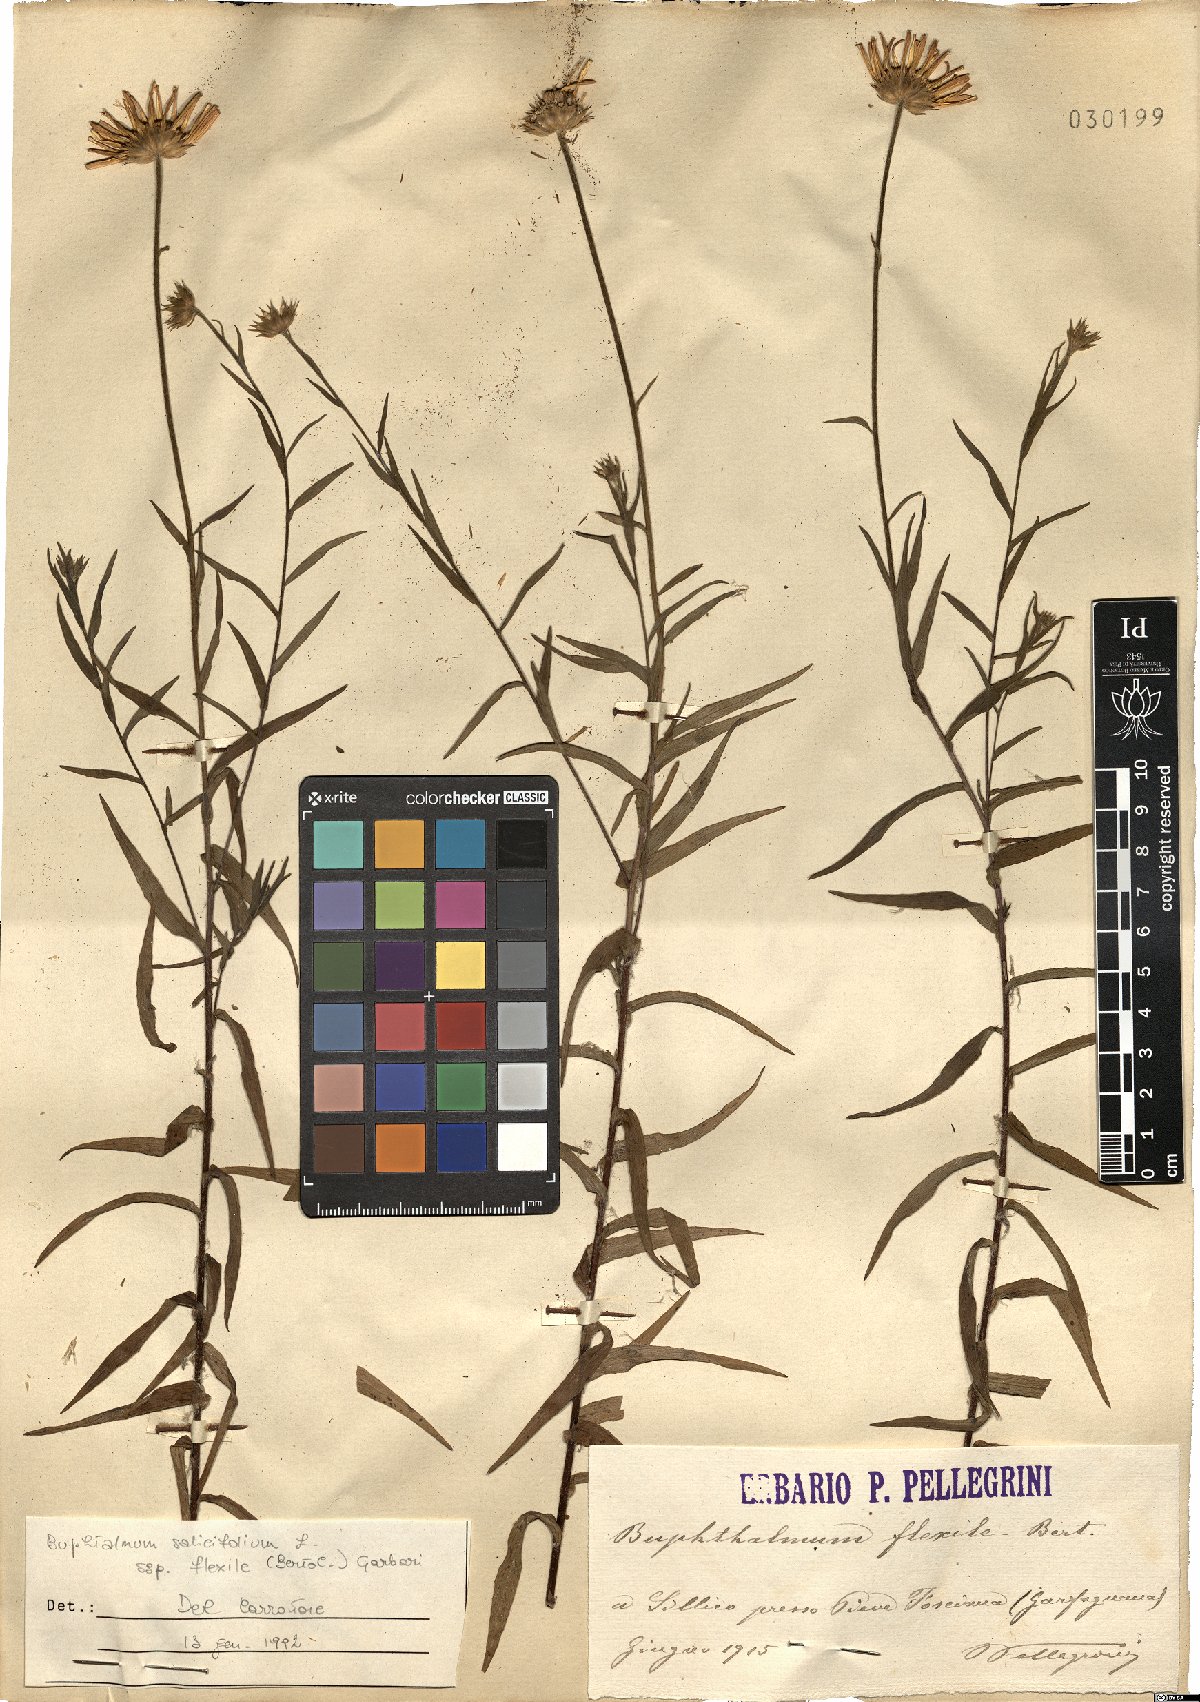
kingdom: Plantae
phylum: Tracheophyta
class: Magnoliopsida
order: Asterales
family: Asteraceae
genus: Buphthalmum
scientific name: Buphthalmum salicifolium
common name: Willow-leaved yellow-oxeye
